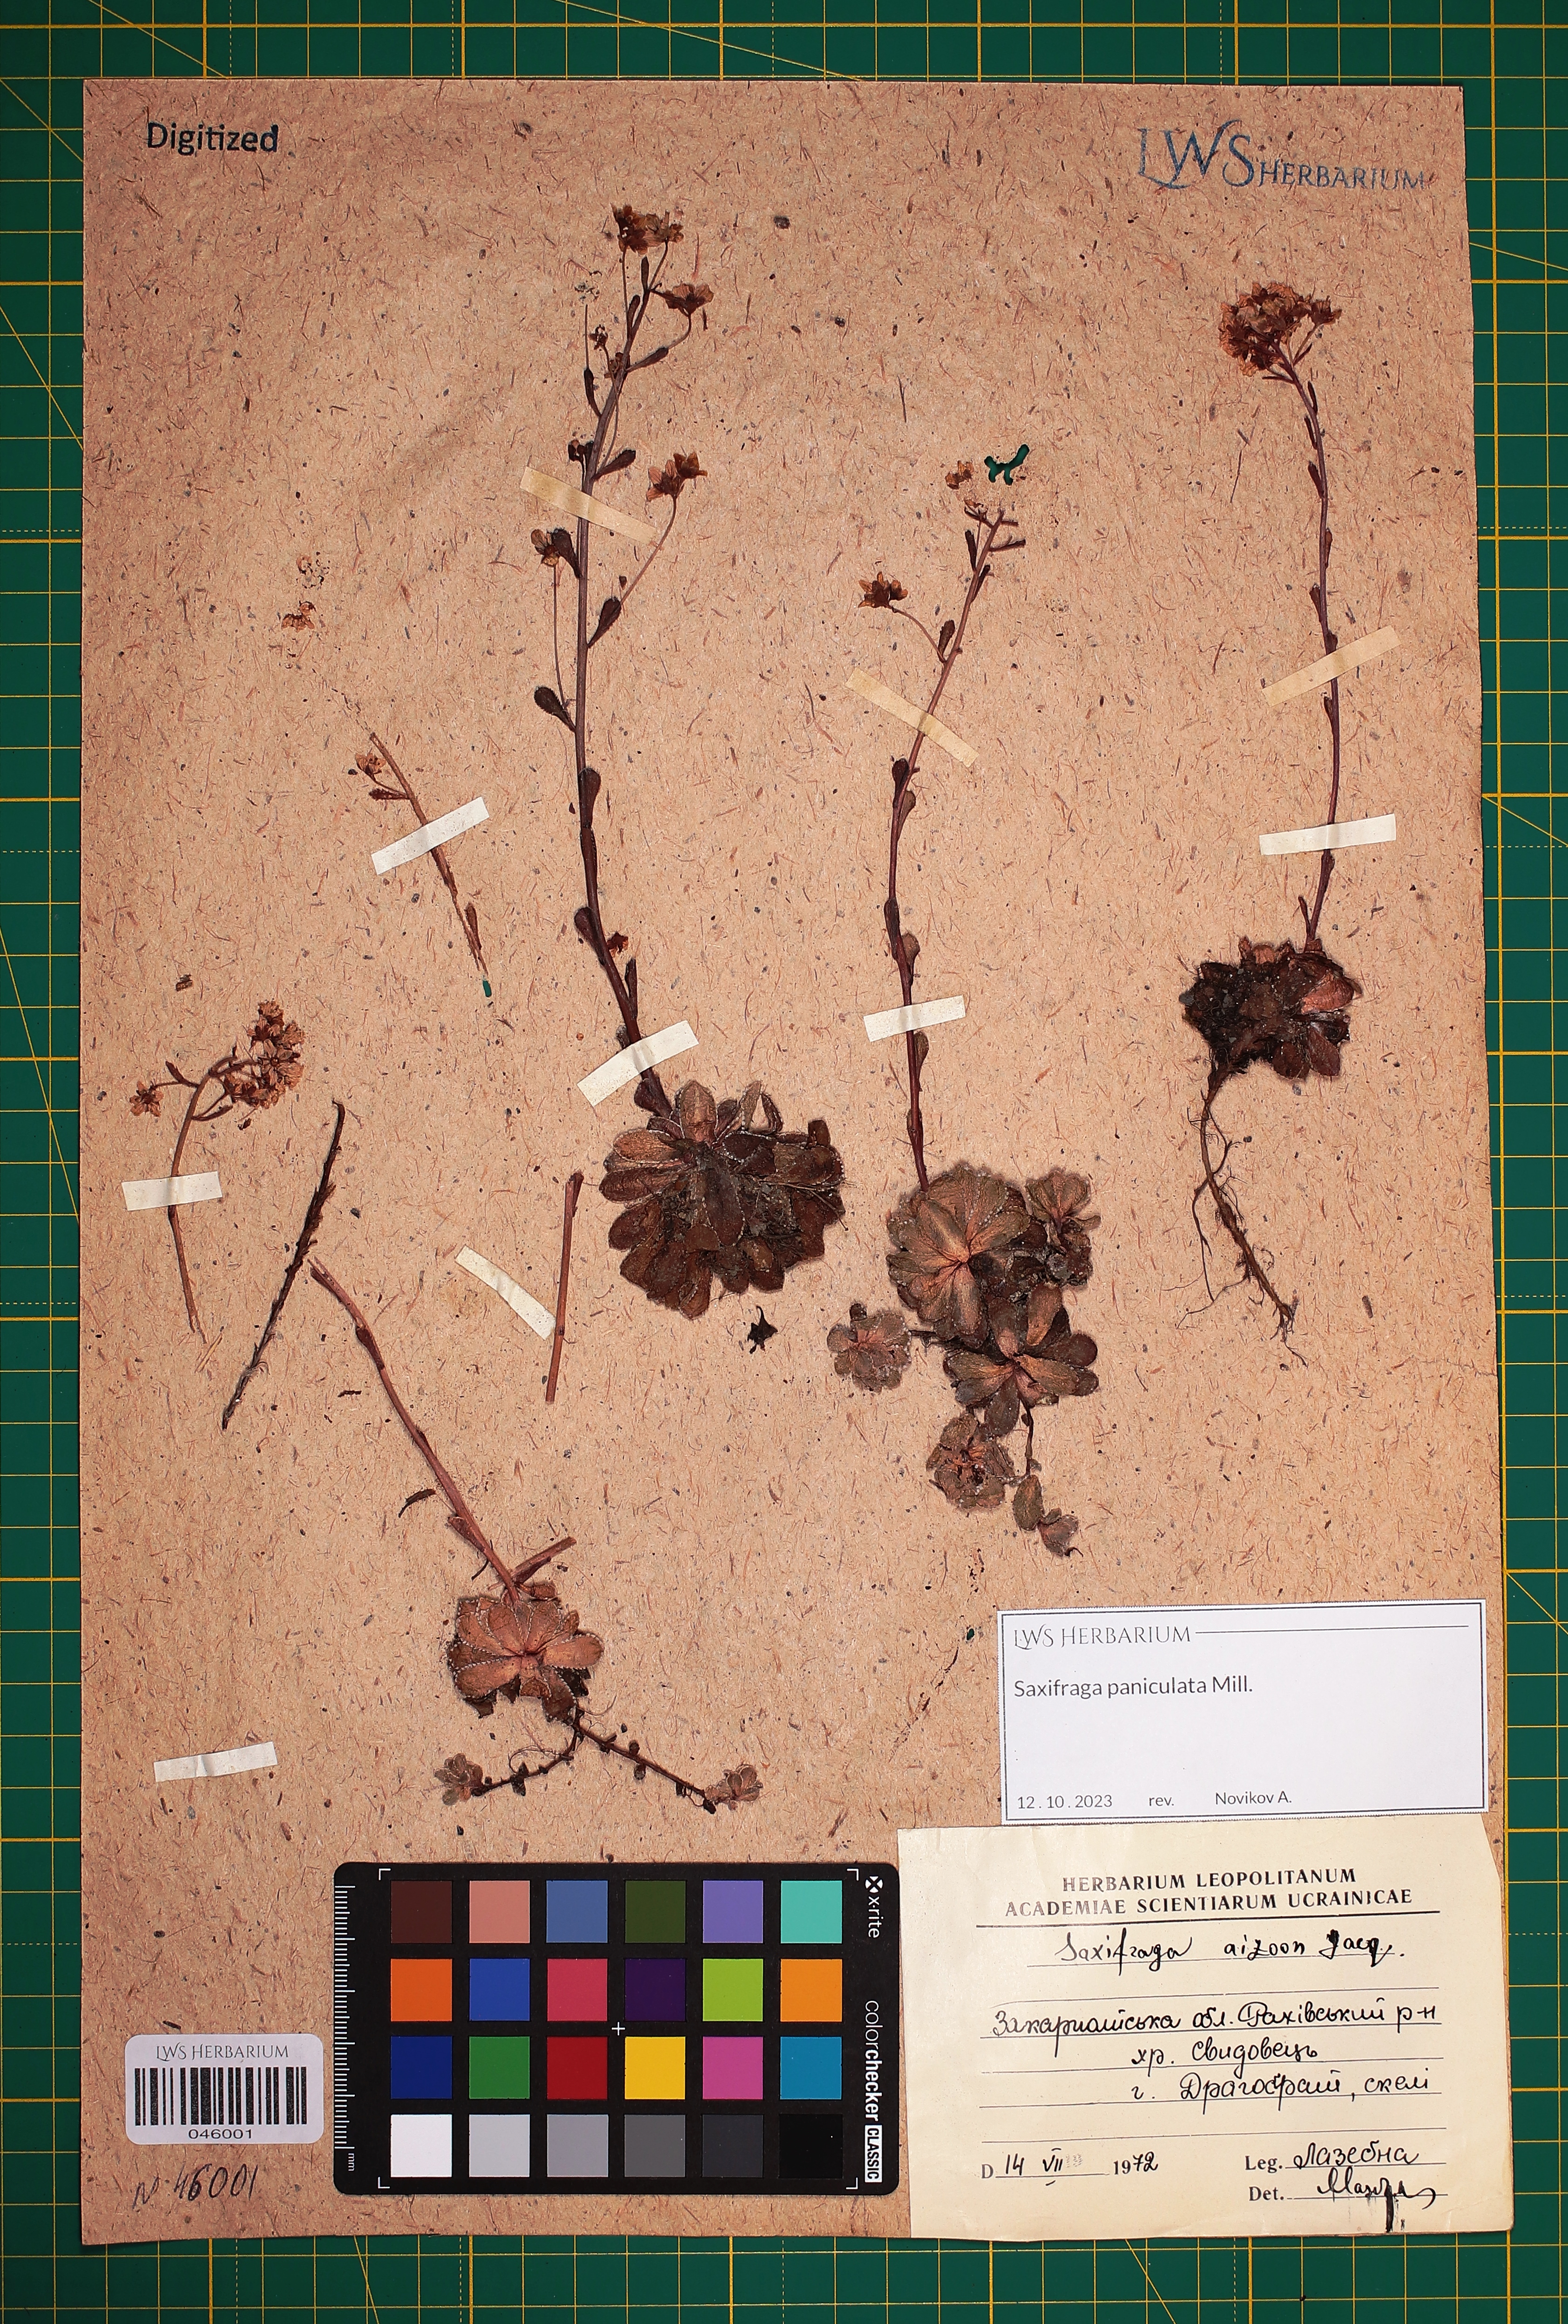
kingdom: Plantae
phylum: Tracheophyta
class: Magnoliopsida
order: Saxifragales
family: Saxifragaceae
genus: Saxifraga
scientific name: Saxifraga paniculata
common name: Livelong saxifrage
